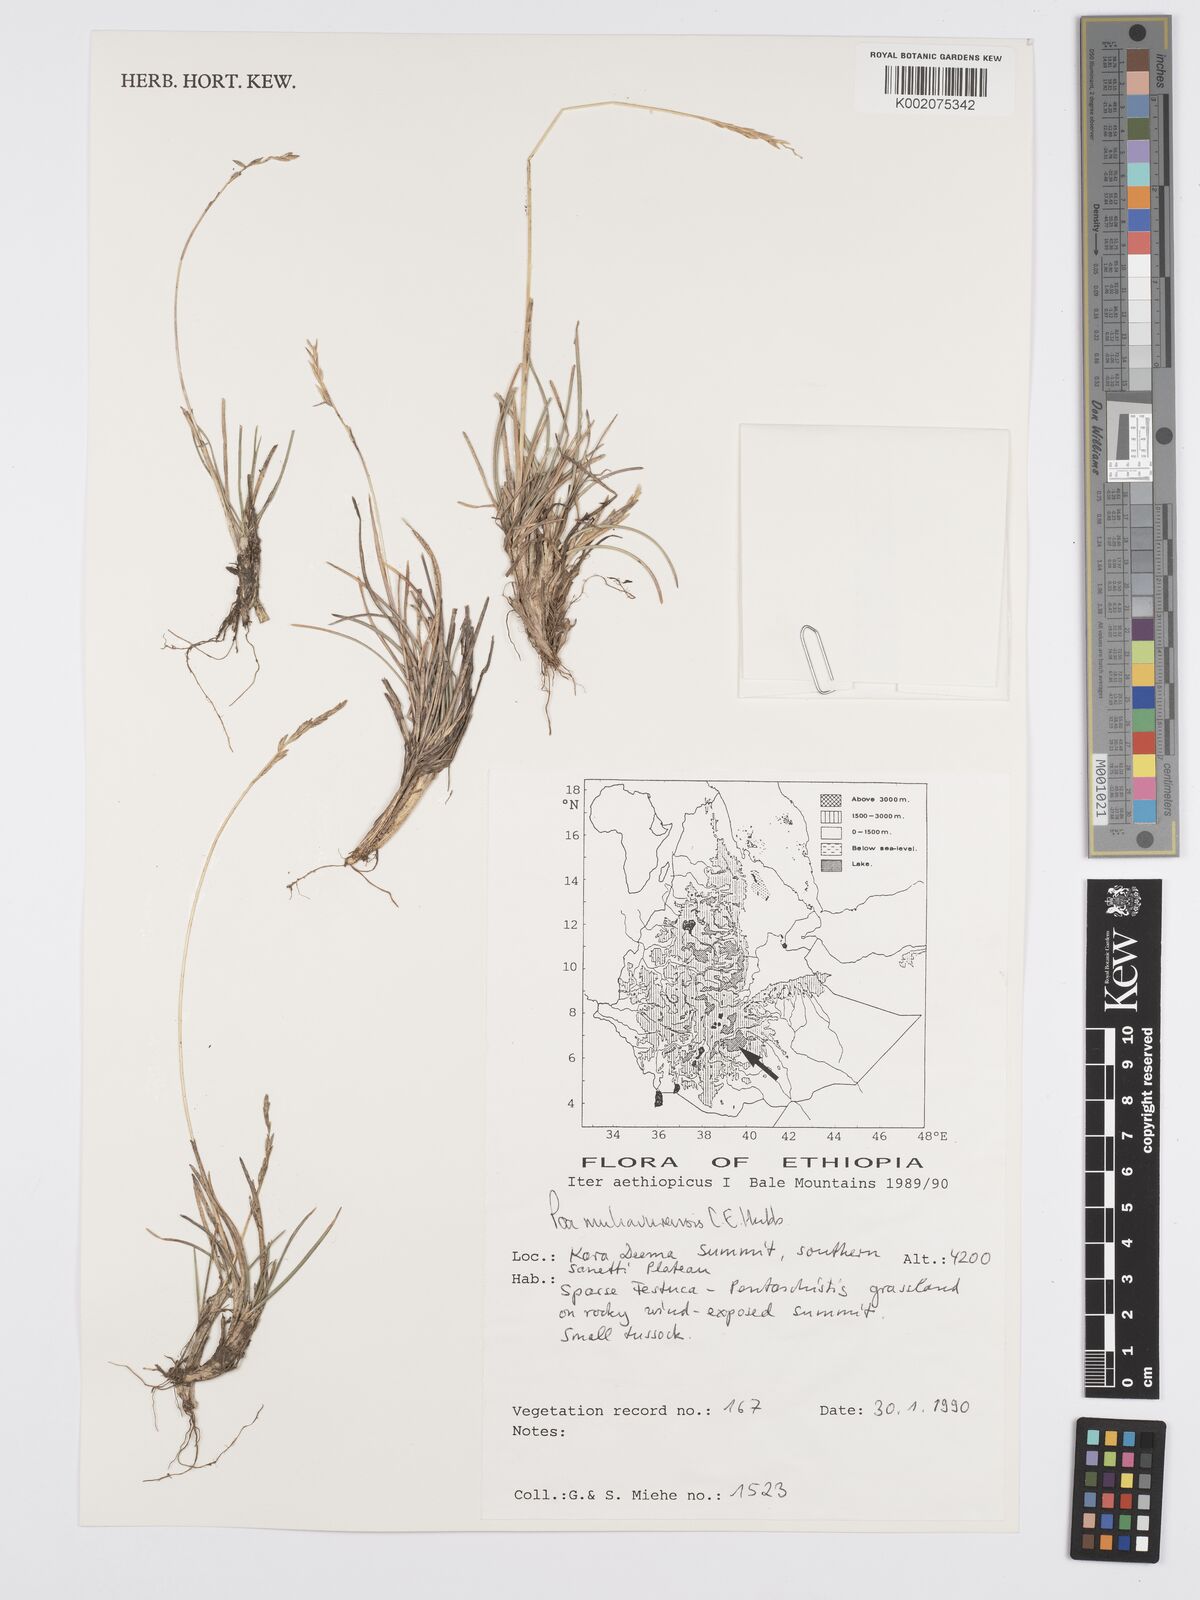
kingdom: Plantae
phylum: Tracheophyta
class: Liliopsida
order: Poales
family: Poaceae
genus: Poa
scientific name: Poa schimperiana
